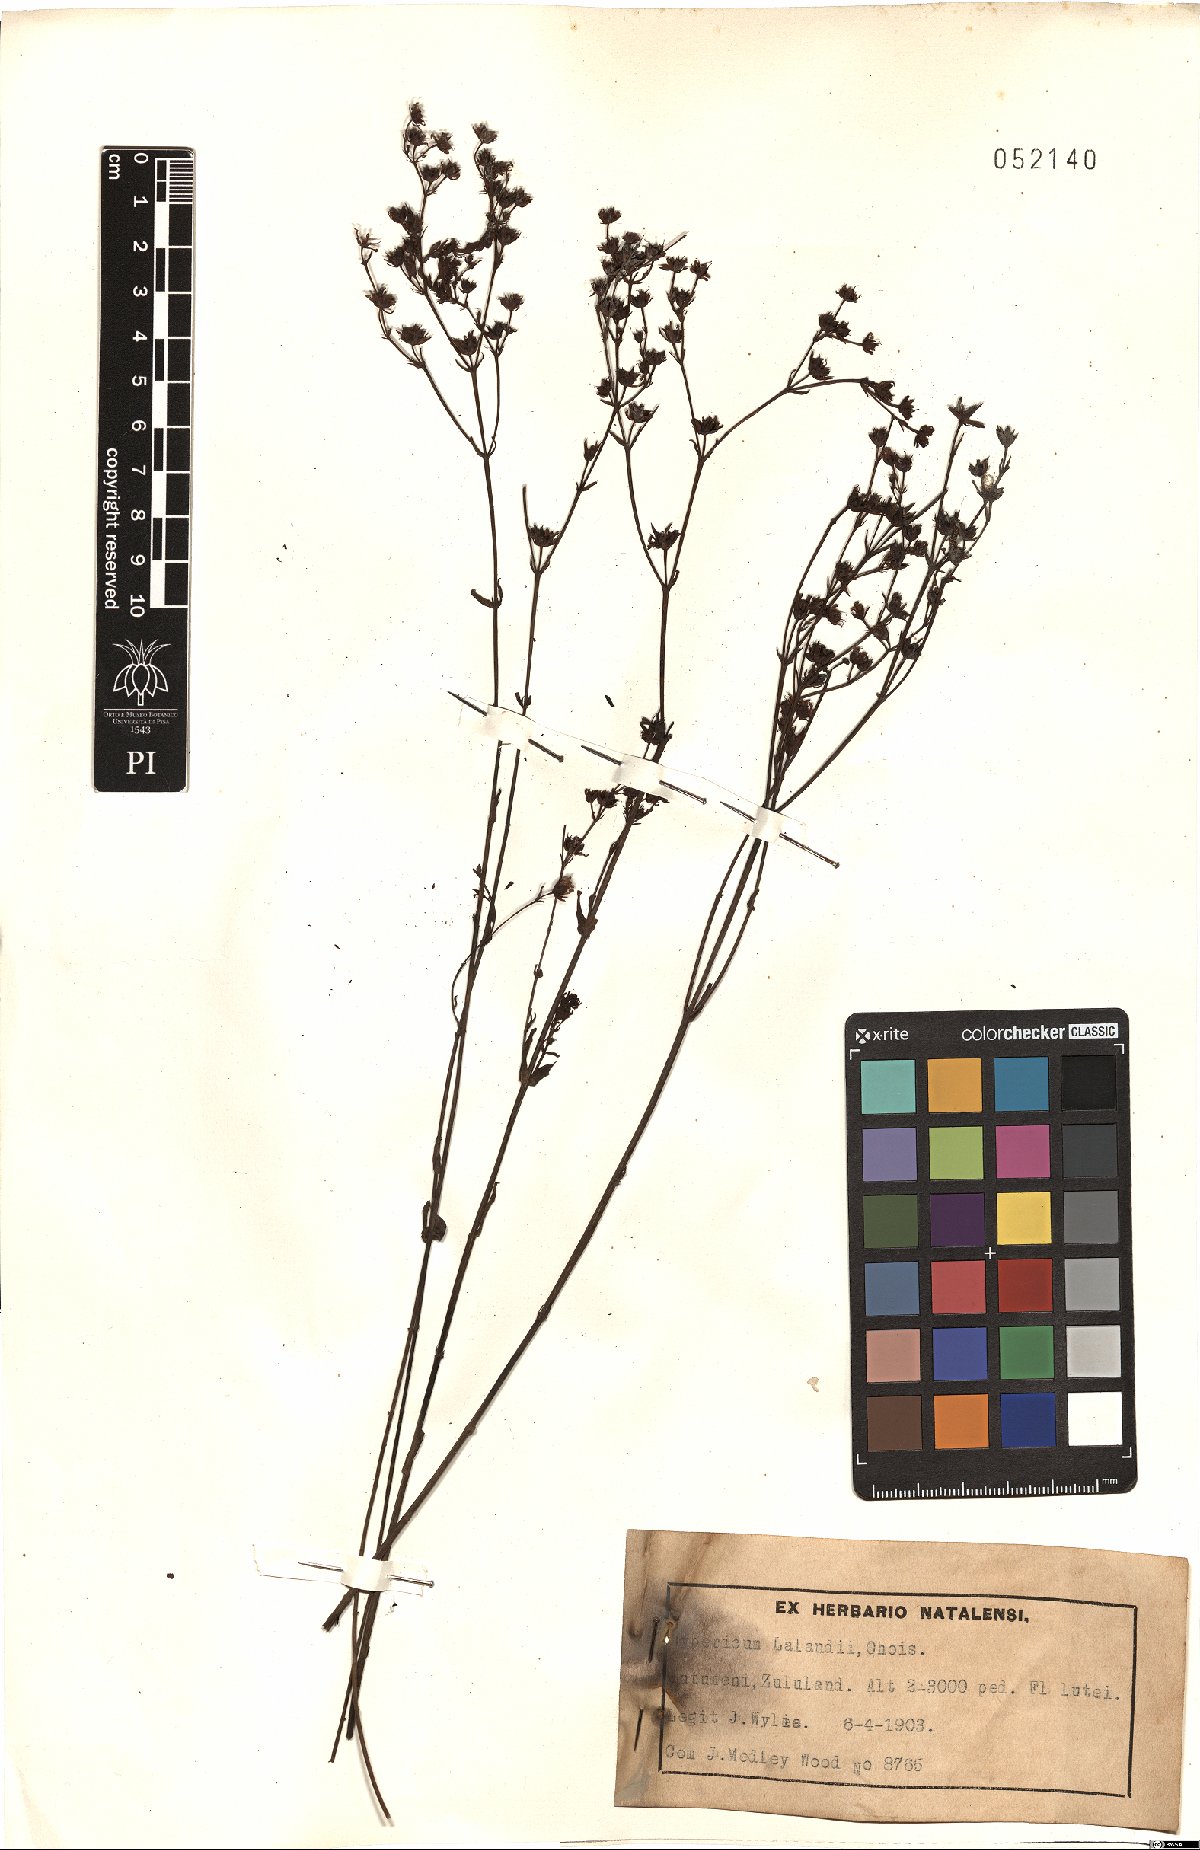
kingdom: Plantae
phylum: Tracheophyta
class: Magnoliopsida
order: Malpighiales
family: Hypericaceae
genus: Hypericum
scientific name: Hypericum lalandii
